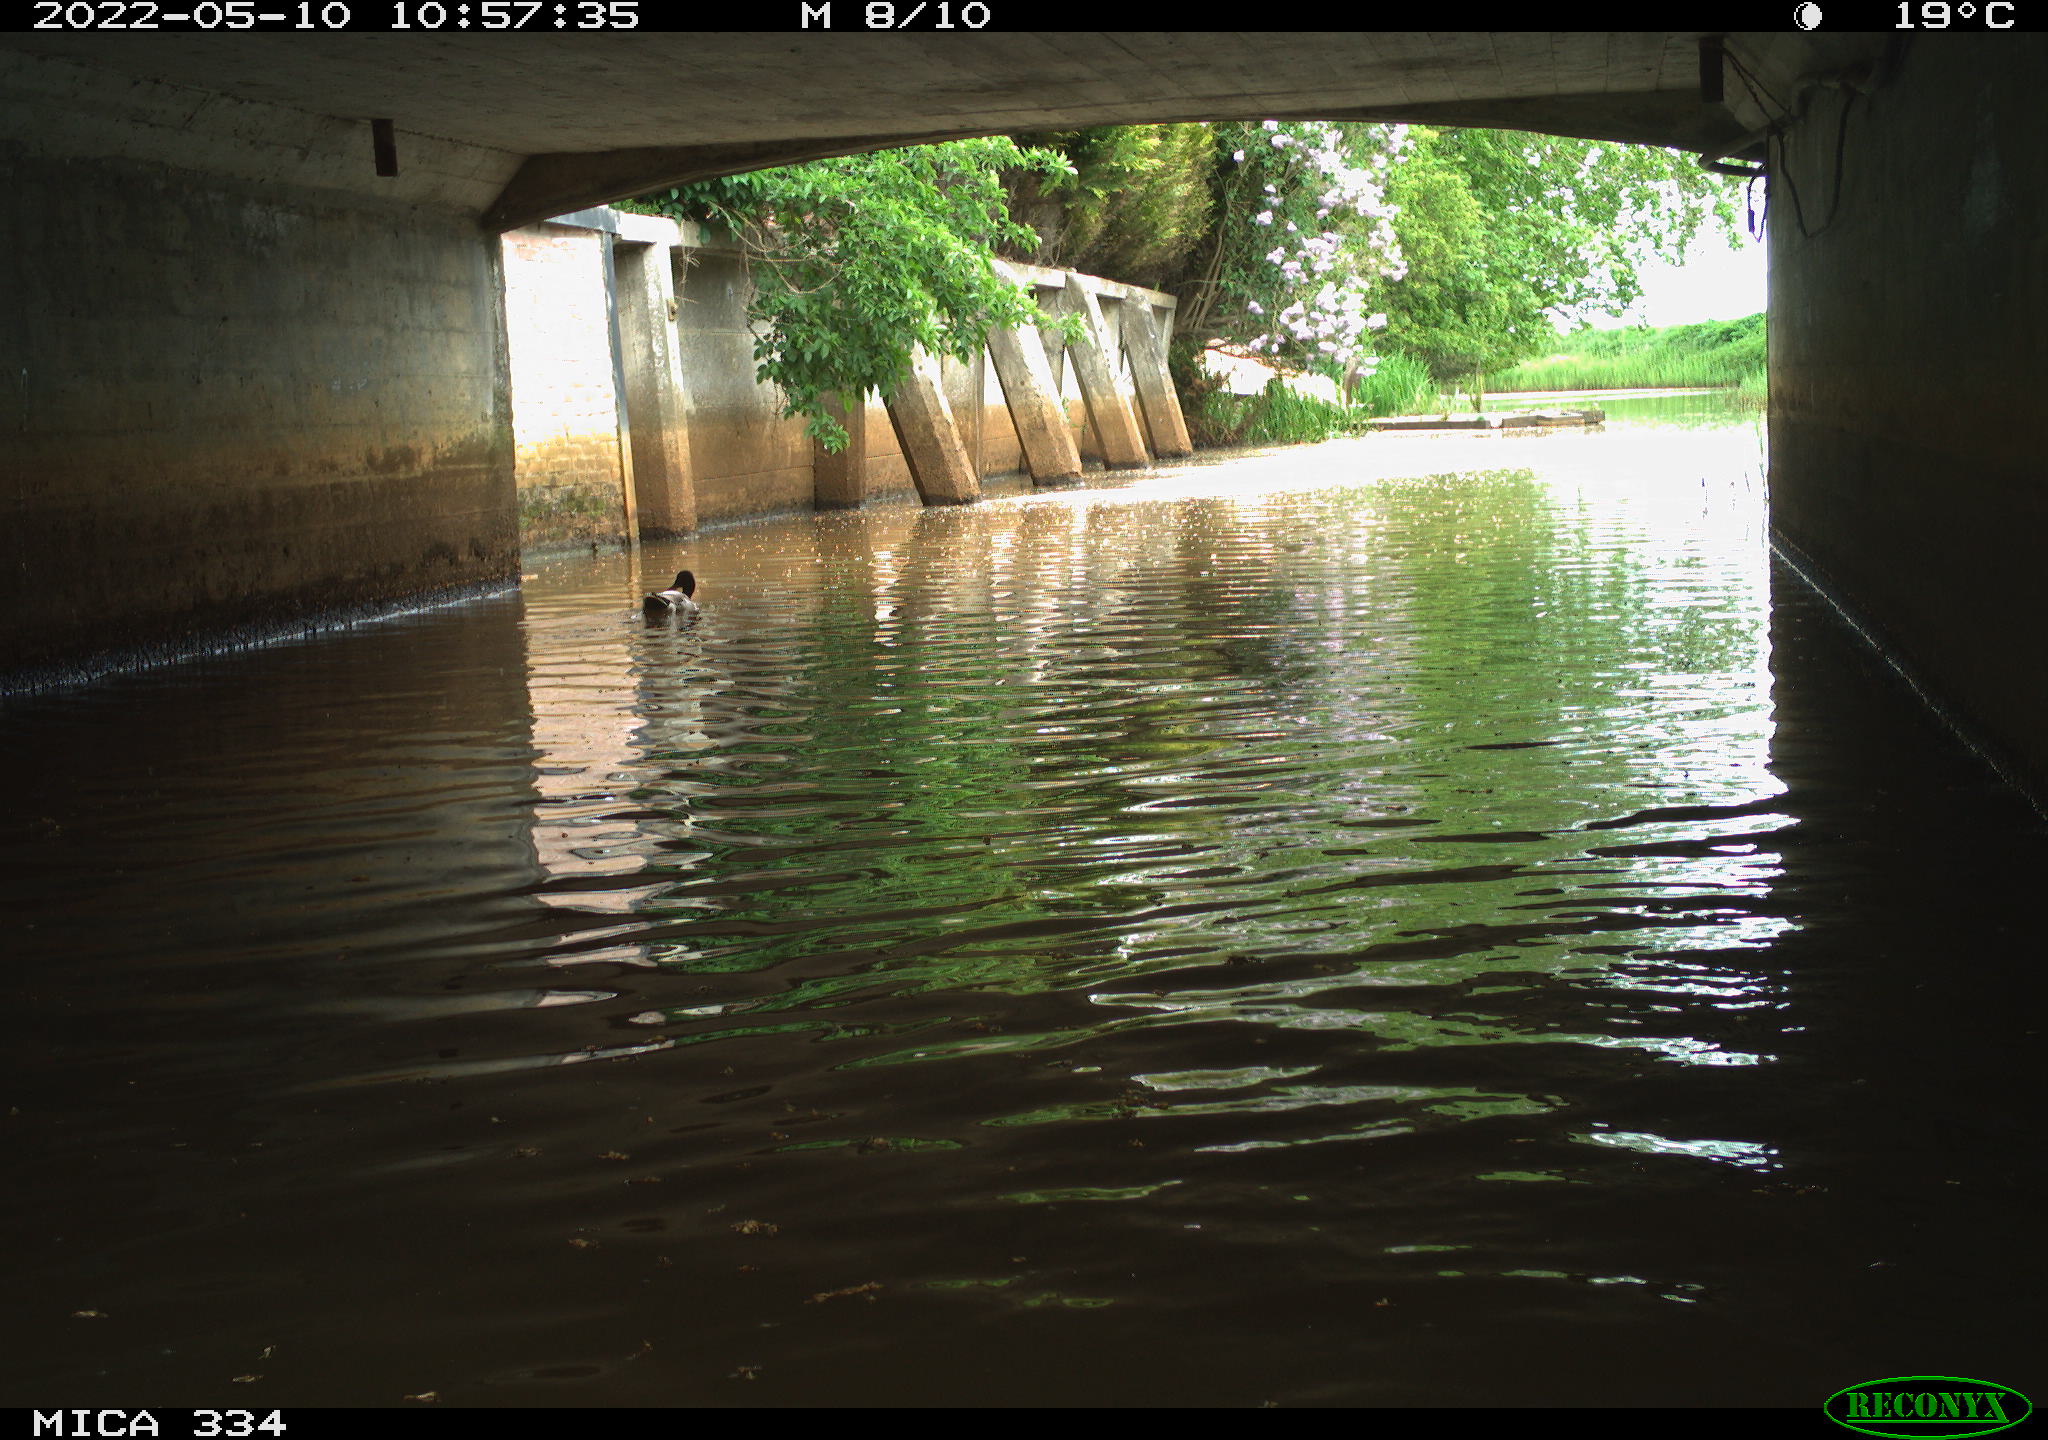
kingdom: Animalia
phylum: Chordata
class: Aves
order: Anseriformes
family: Anatidae
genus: Anas
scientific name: Anas platyrhynchos
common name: Mallard
